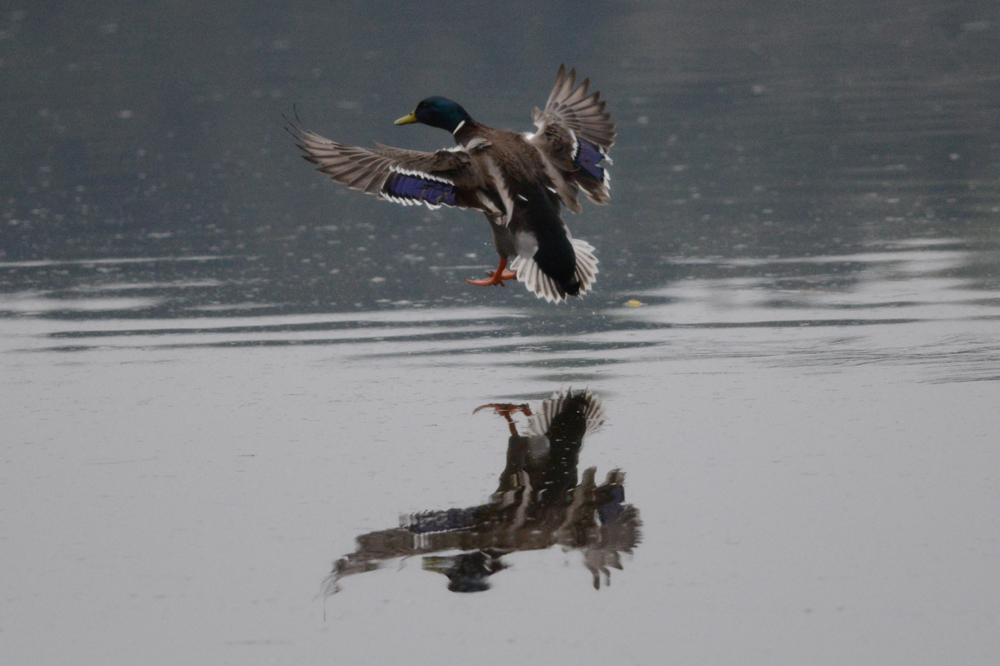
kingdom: Animalia
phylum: Chordata
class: Aves
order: Anseriformes
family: Anatidae
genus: Anas
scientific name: Anas platyrhynchos
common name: Mallard
